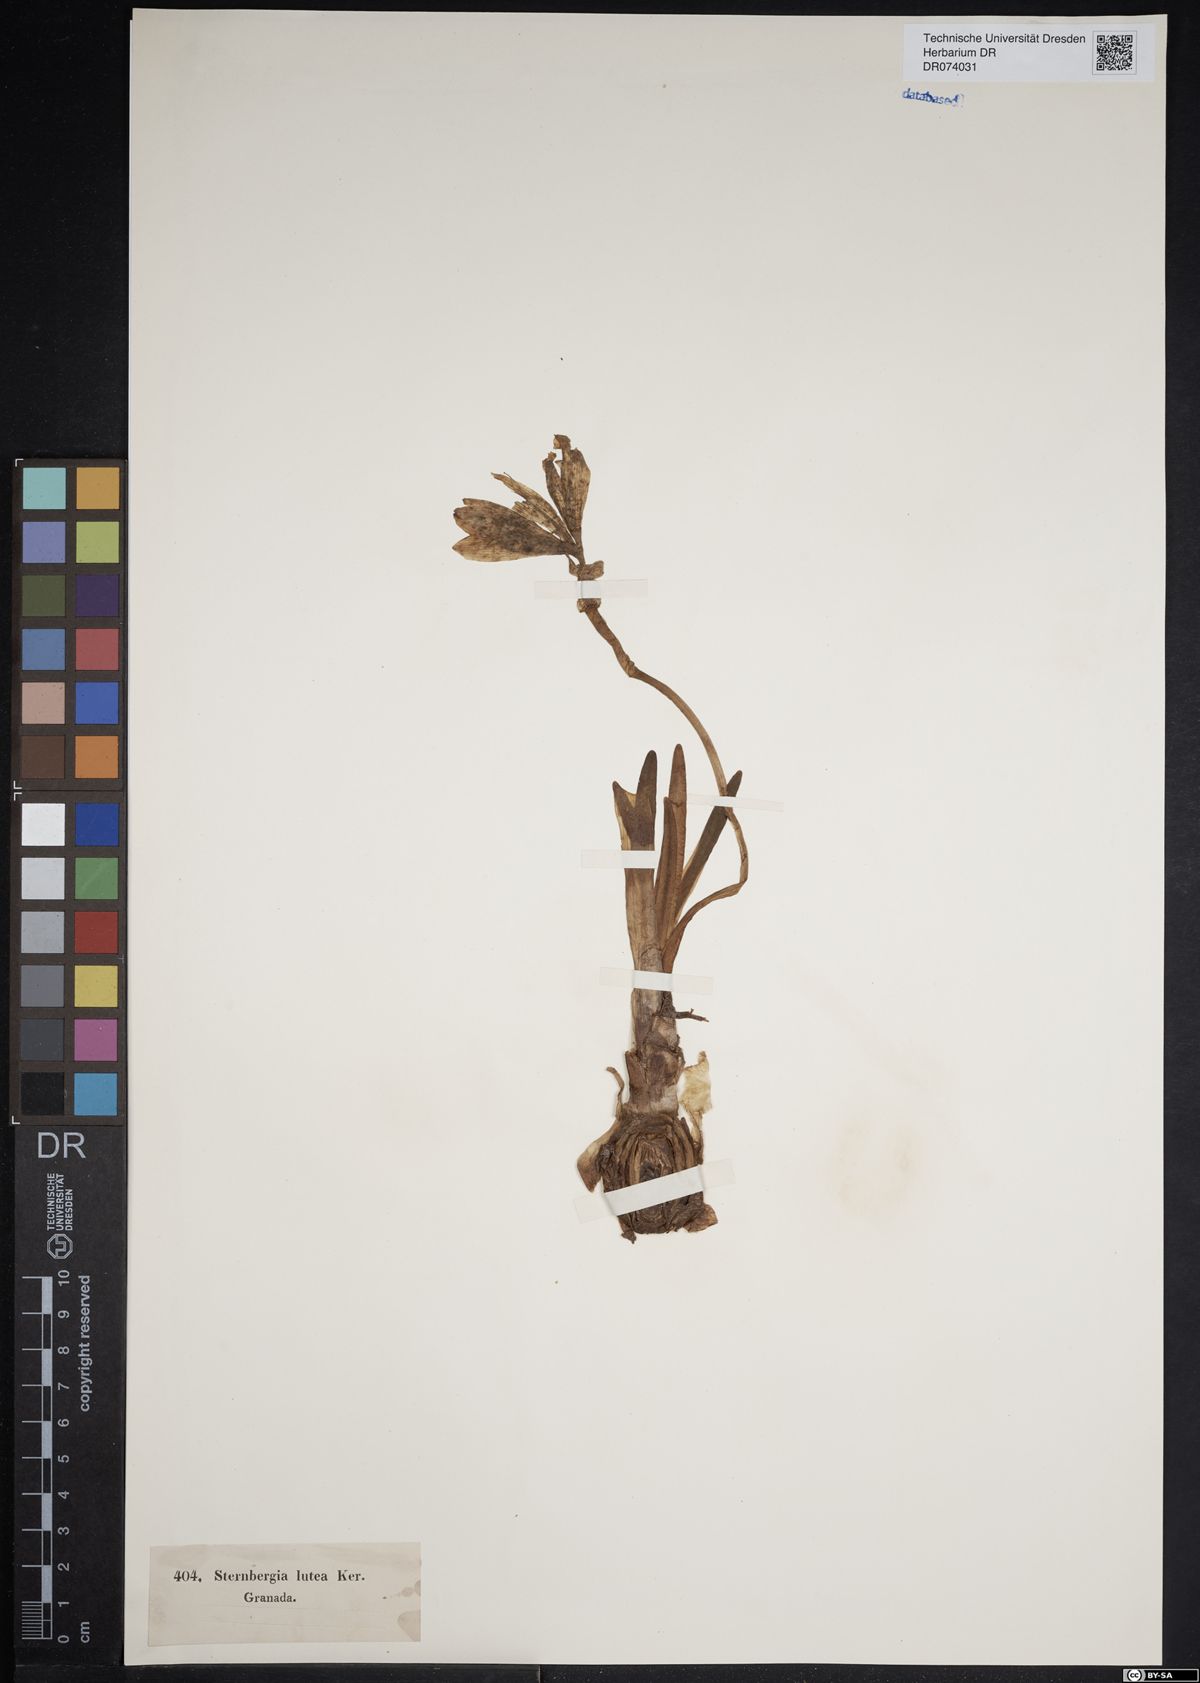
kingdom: Plantae
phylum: Tracheophyta
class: Liliopsida
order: Asparagales
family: Amaryllidaceae
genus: Sternbergia
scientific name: Sternbergia lutea
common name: Winter daffodil
